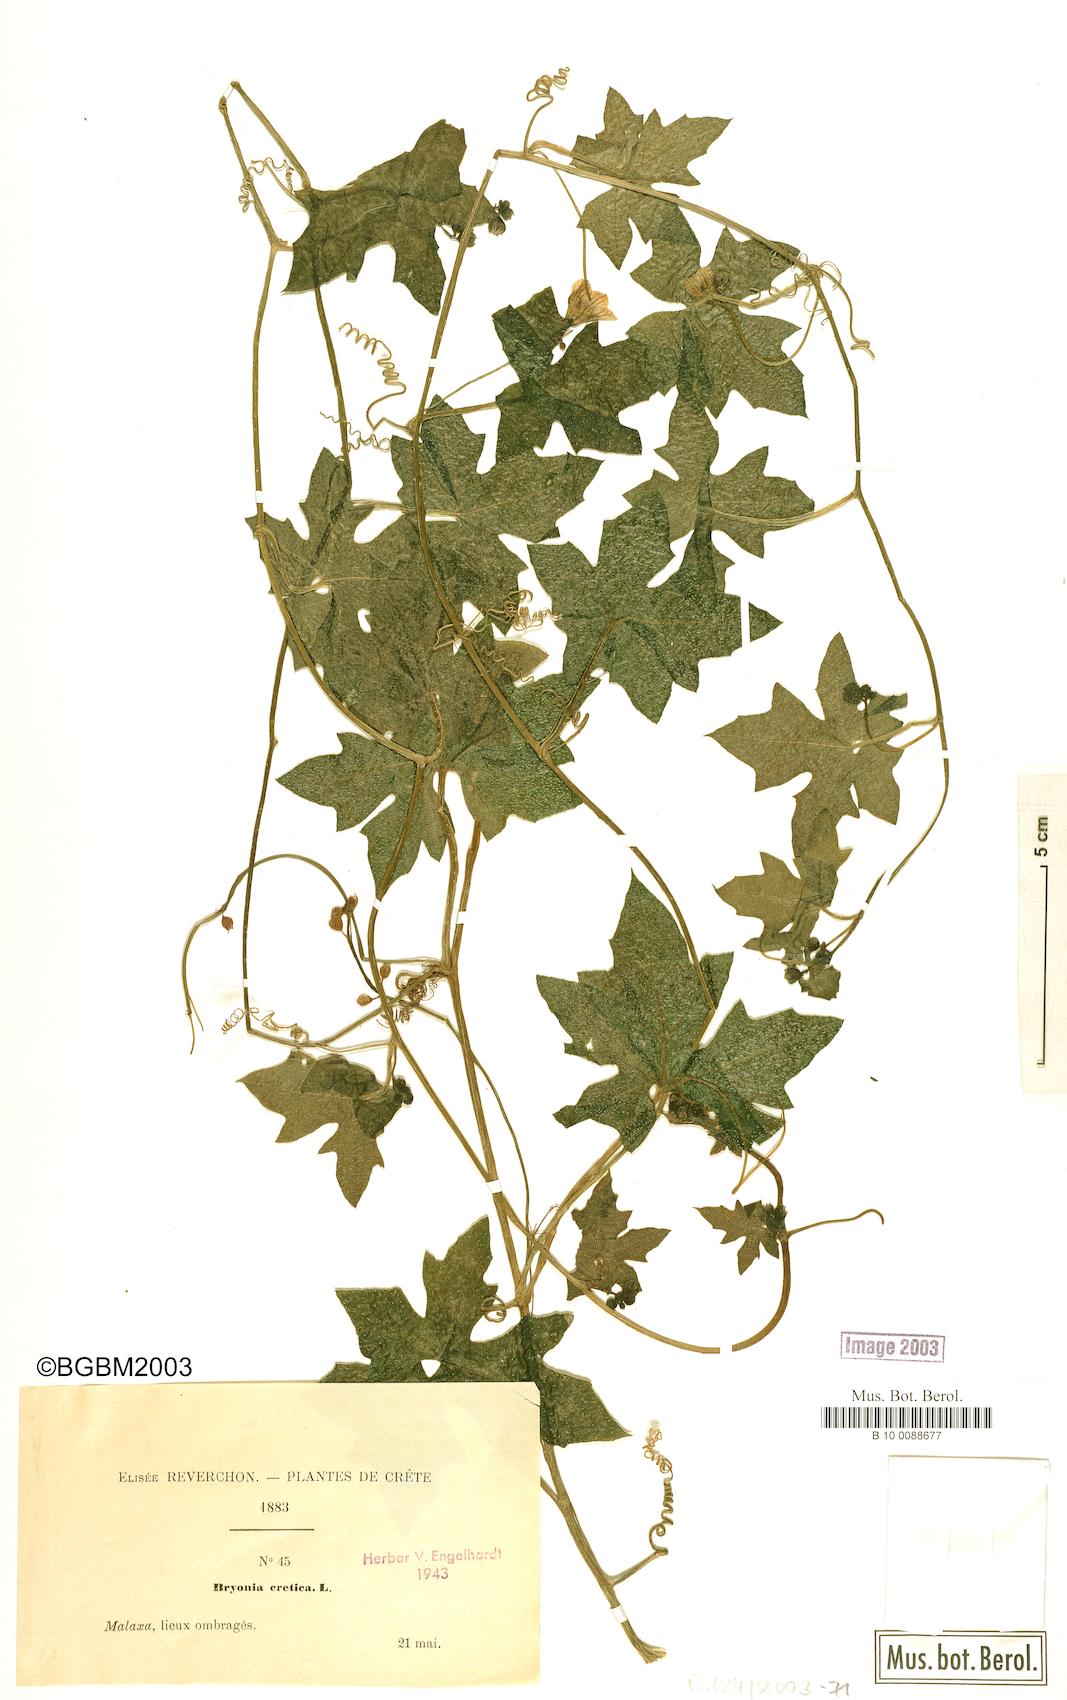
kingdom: Plantae
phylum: Tracheophyta
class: Magnoliopsida
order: Cucurbitales
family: Cucurbitaceae
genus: Bryonia
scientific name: Bryonia cretica
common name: Cretan bryony
